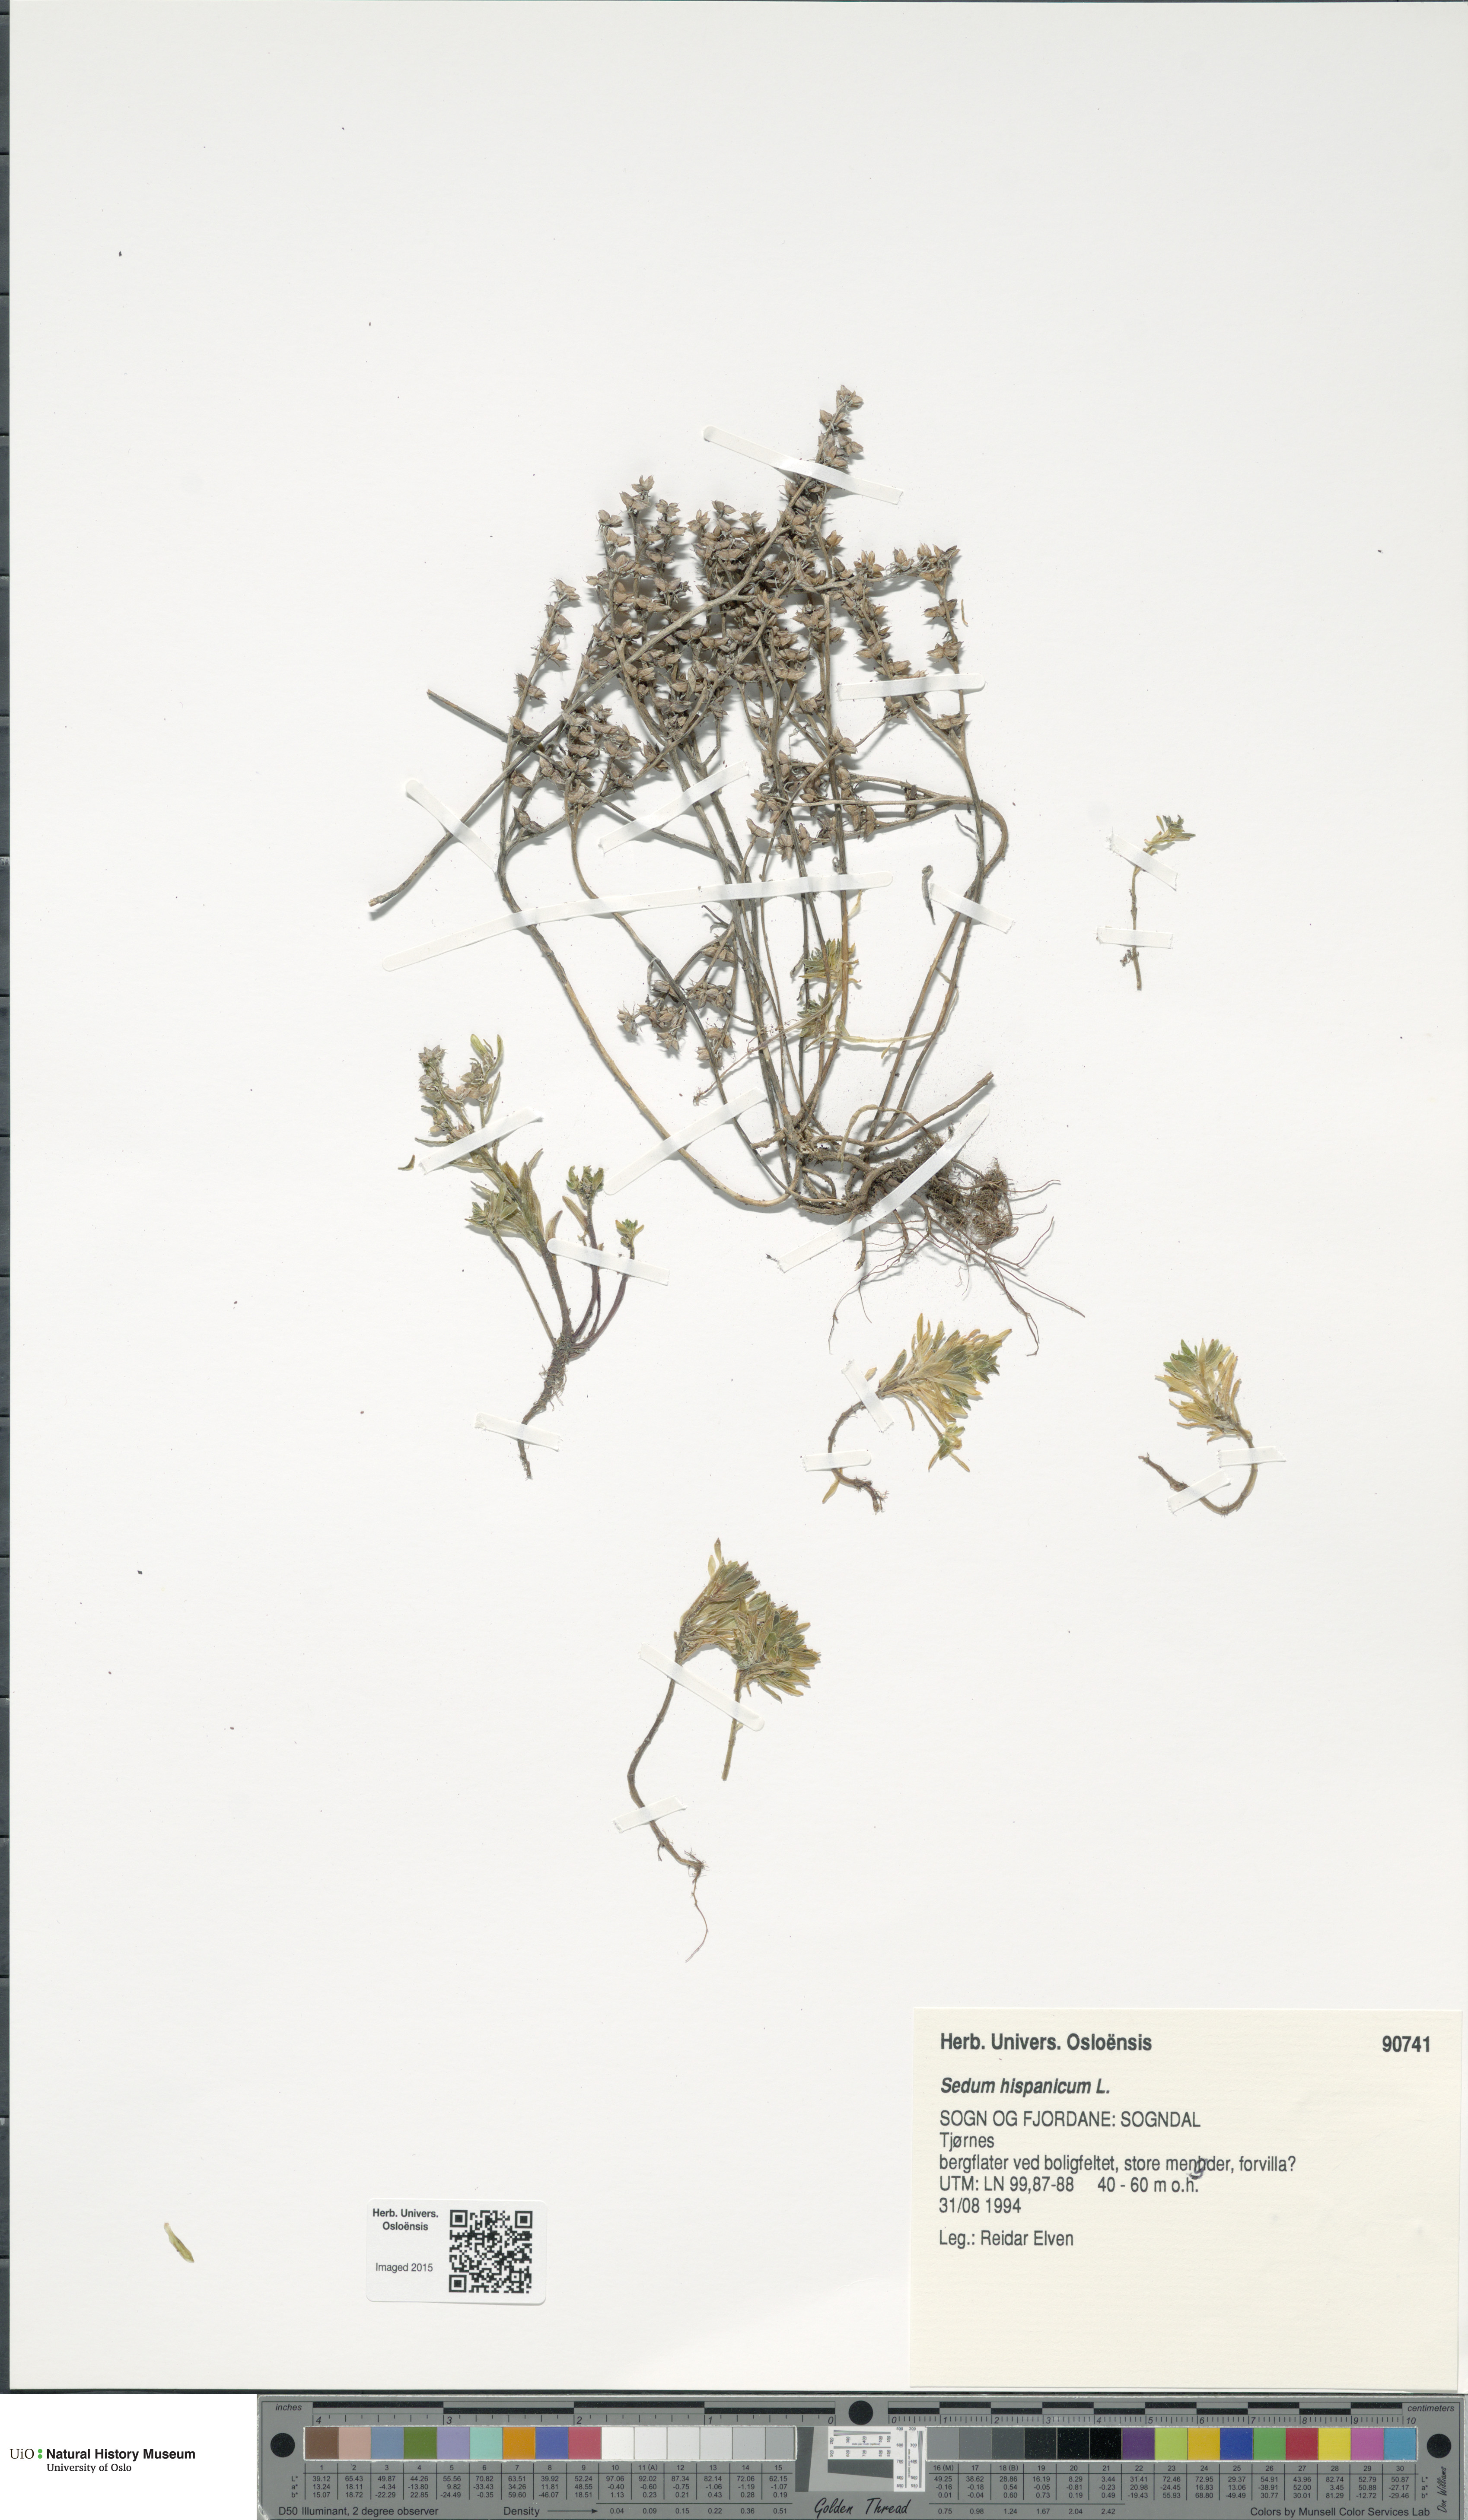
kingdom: Plantae
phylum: Tracheophyta
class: Magnoliopsida
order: Saxifragales
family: Crassulaceae
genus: Sedum
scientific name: Sedum hispanicum
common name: Spanish stonecrop
